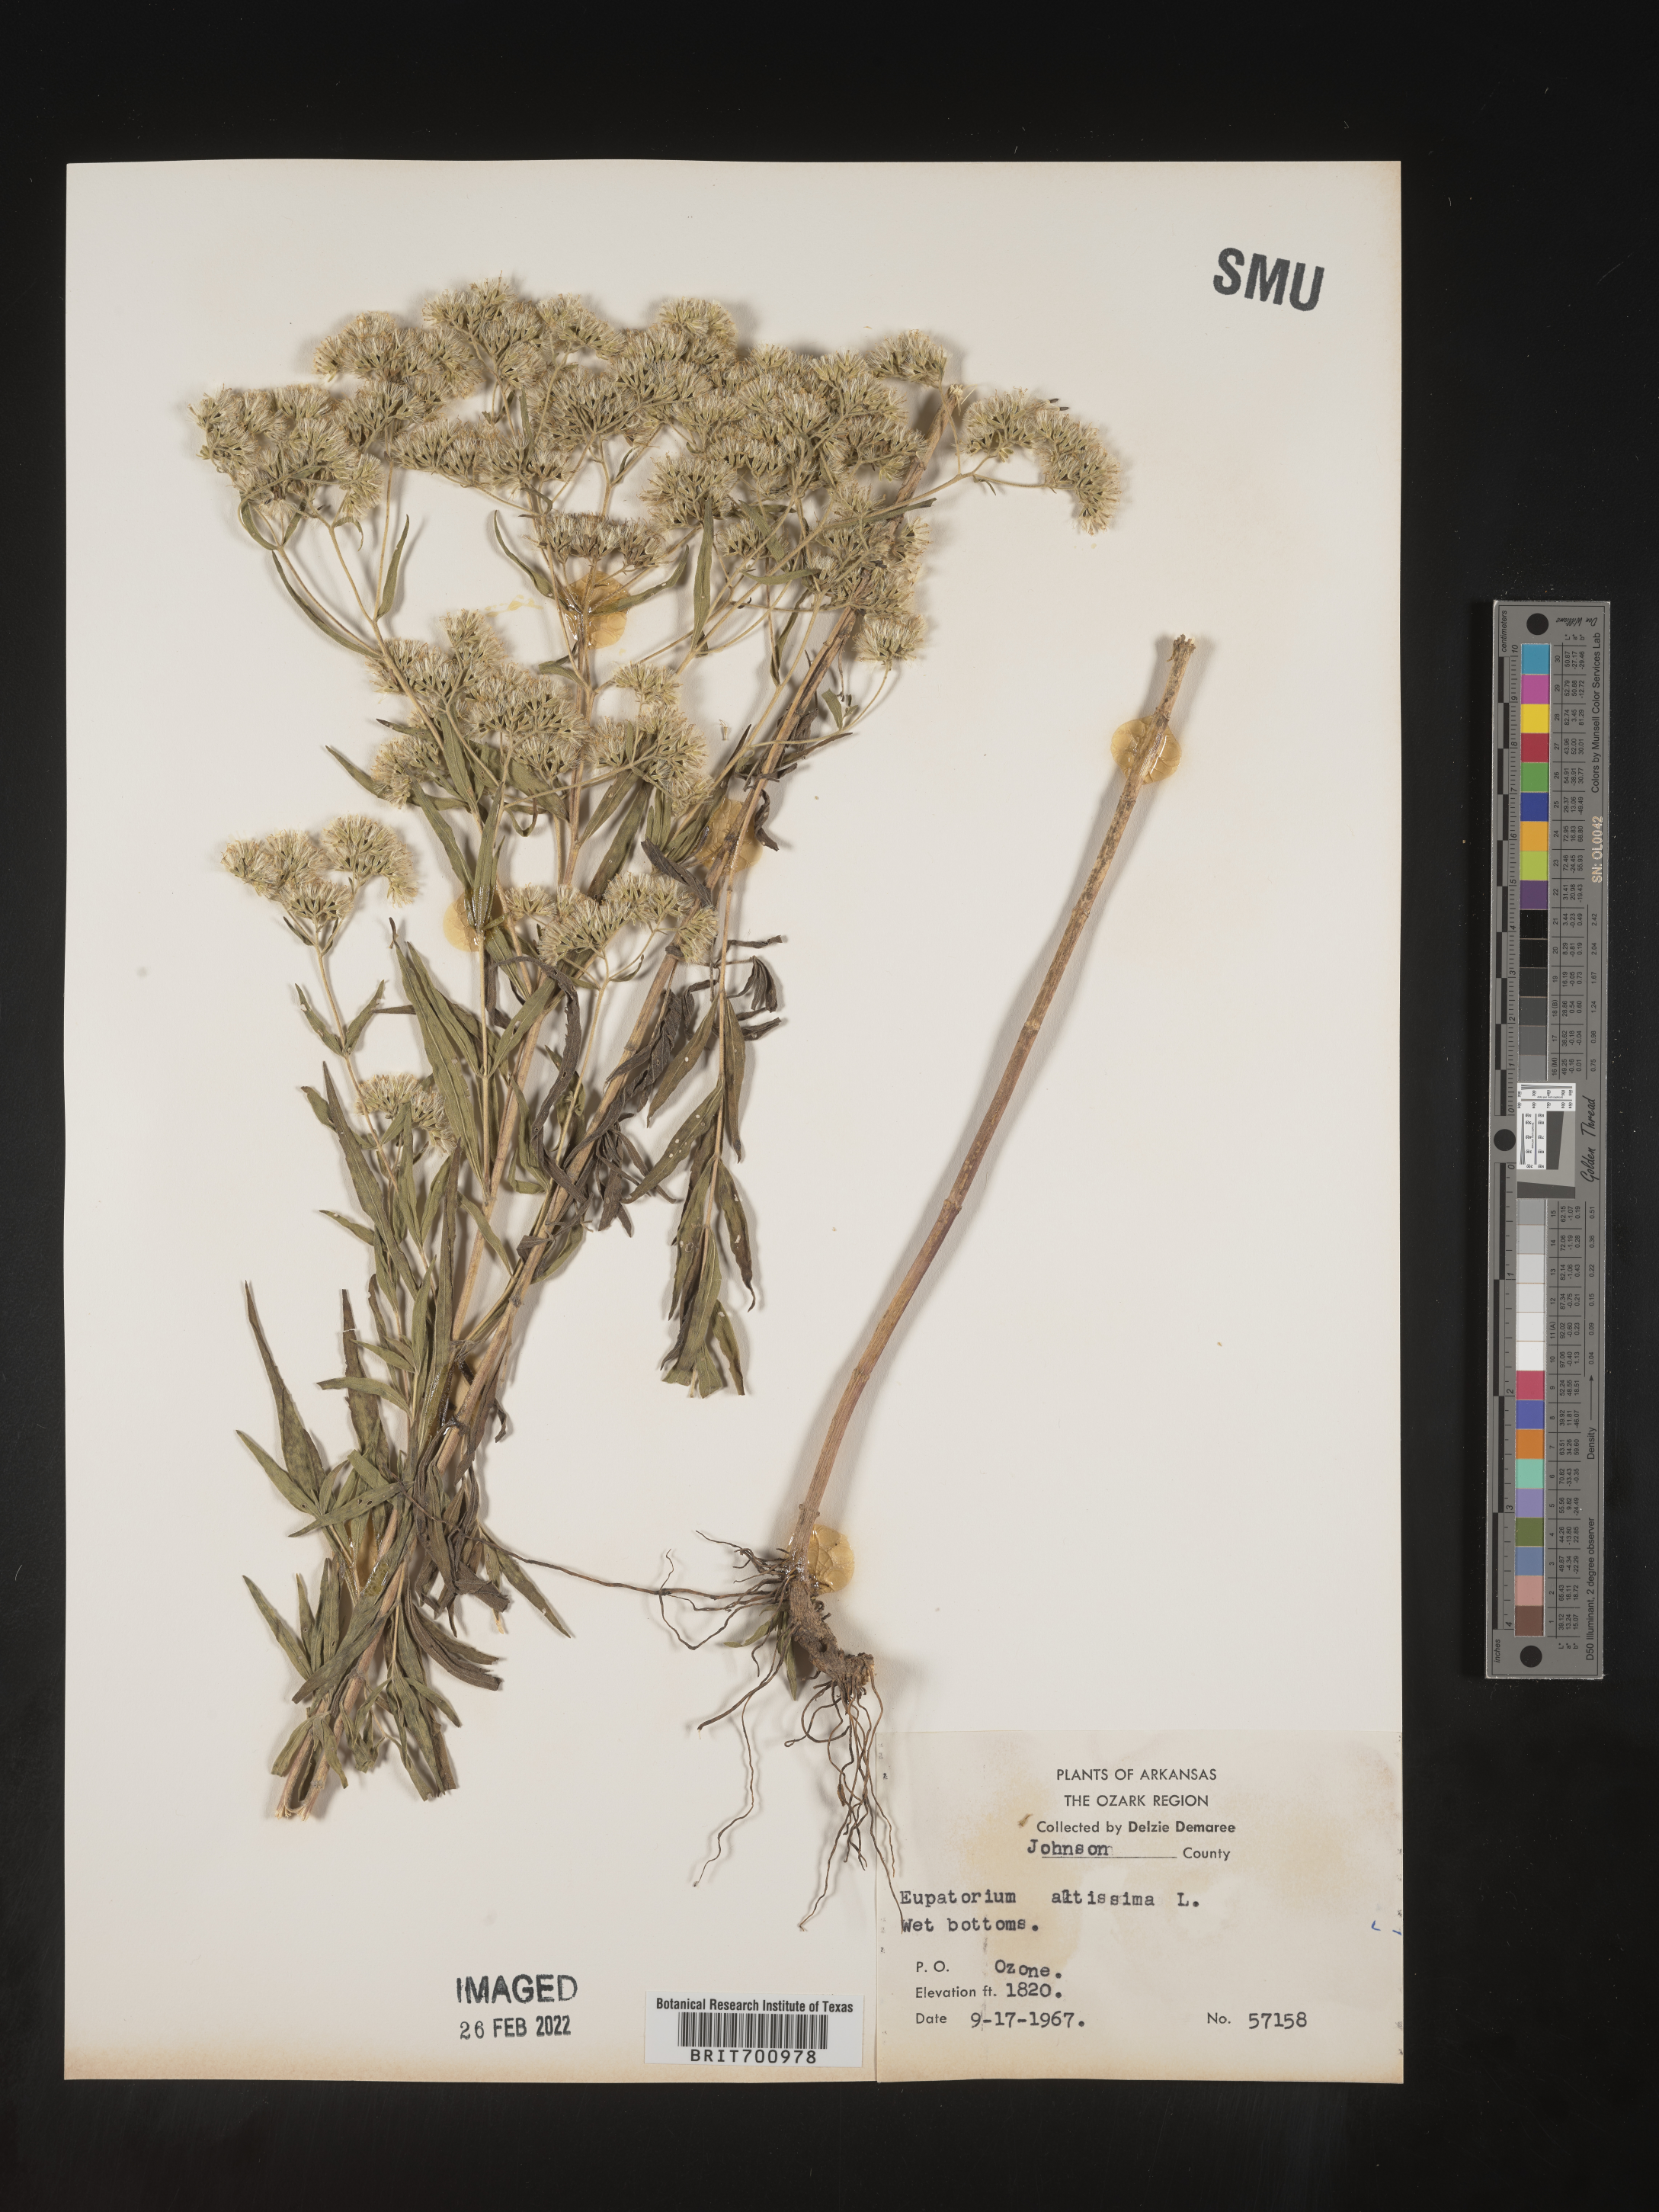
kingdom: Plantae
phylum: Tracheophyta
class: Magnoliopsida
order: Asterales
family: Asteraceae
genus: Eupatorium
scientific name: Eupatorium altissimum
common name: Tall thoroughwort
